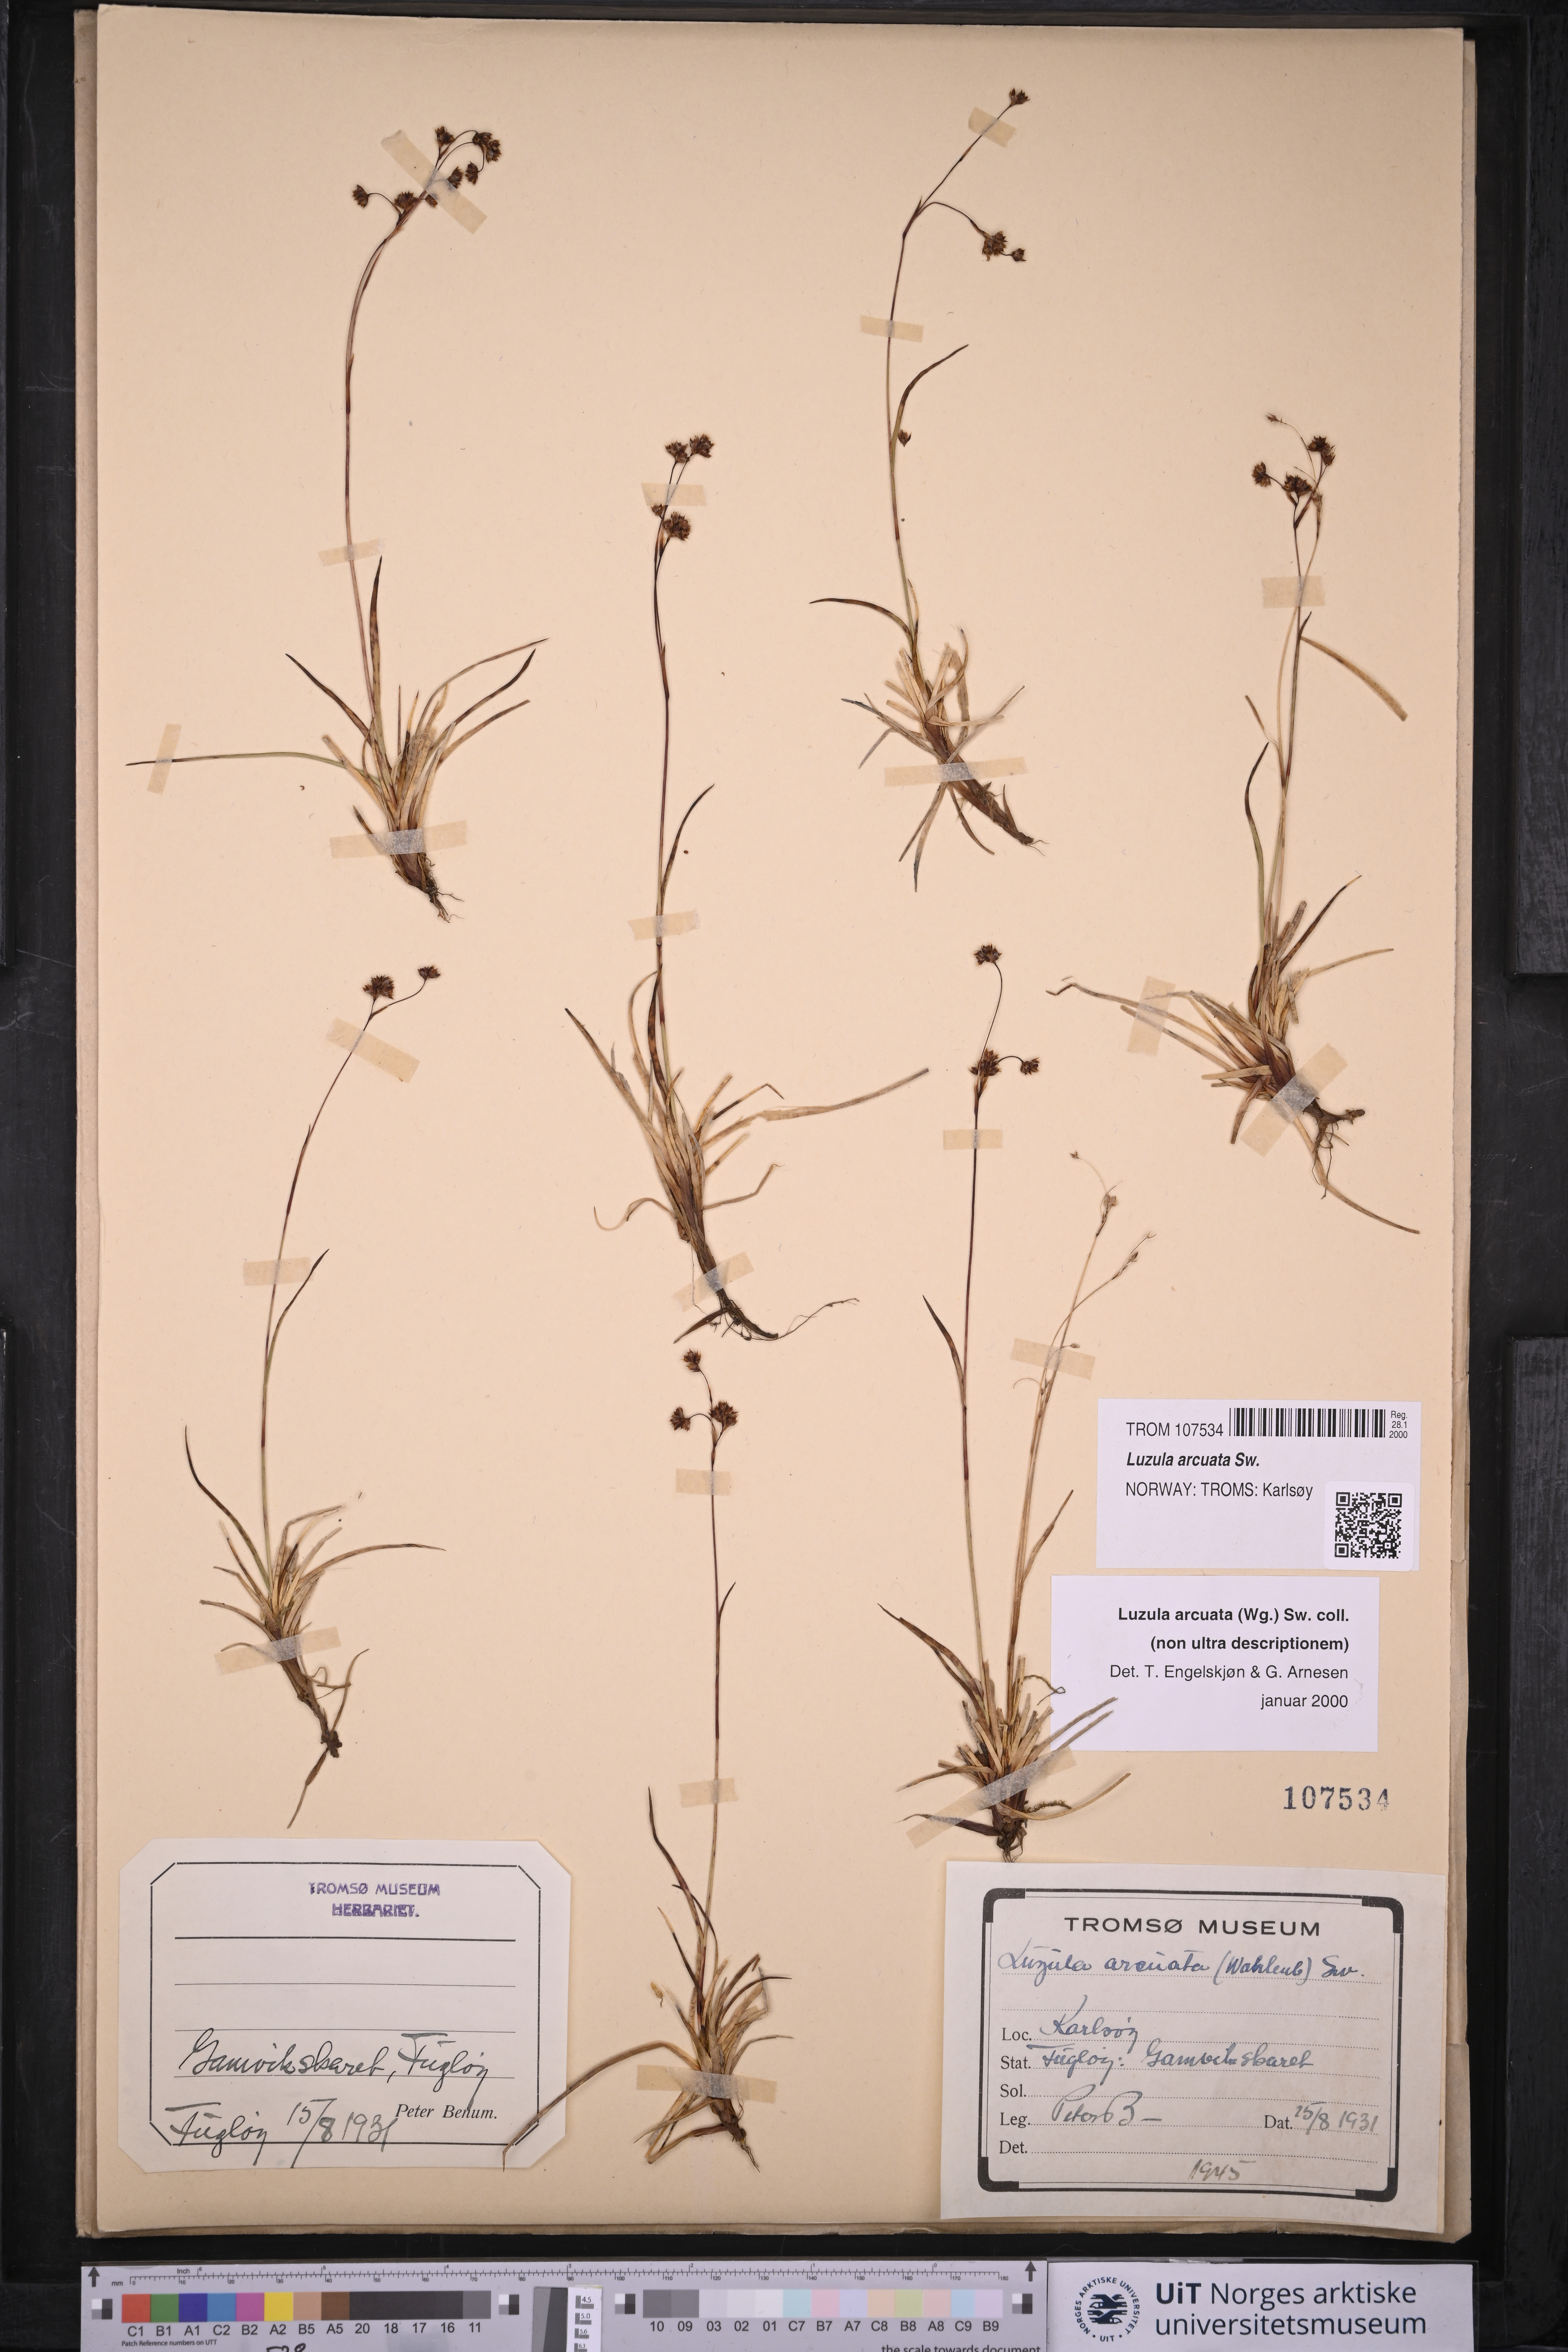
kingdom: Plantae
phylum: Tracheophyta
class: Liliopsida
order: Poales
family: Juncaceae
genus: Luzula
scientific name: Luzula arcuata
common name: Curved wood-rush
